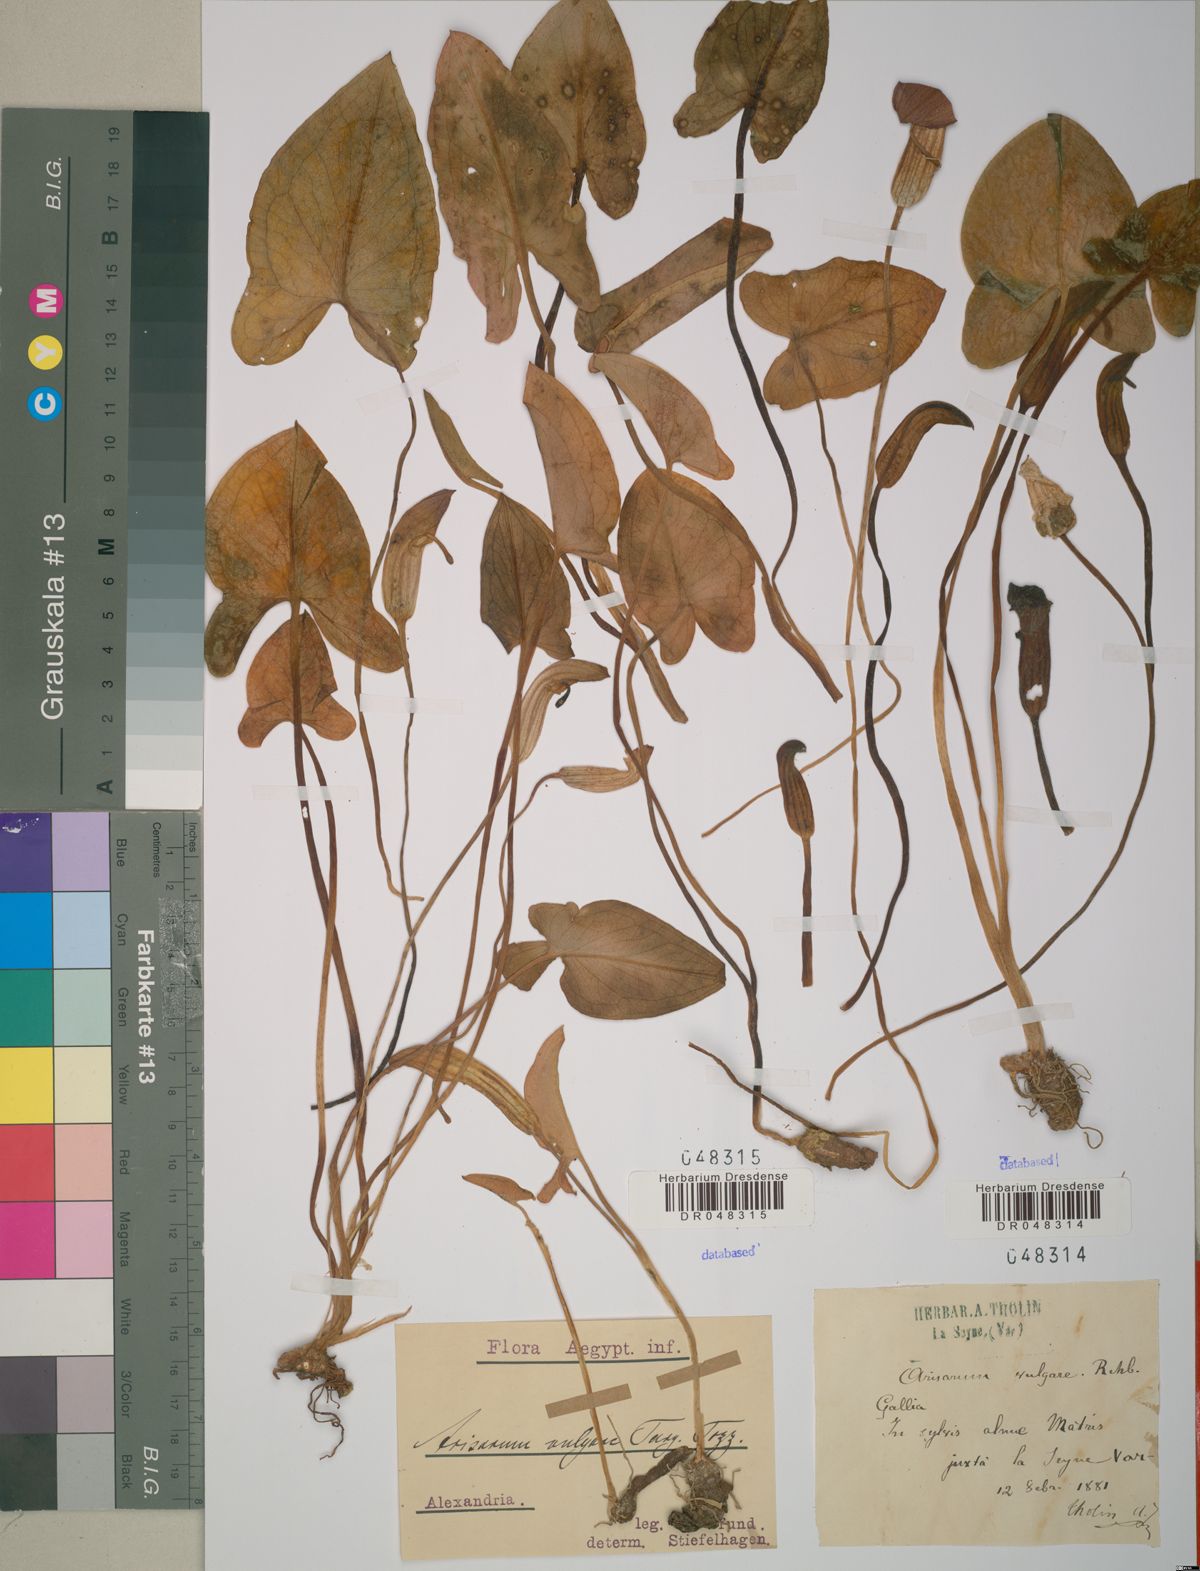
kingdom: Plantae
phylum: Tracheophyta
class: Liliopsida
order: Alismatales
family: Araceae
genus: Arisarum
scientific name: Arisarum vulgare
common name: Common arisarum
